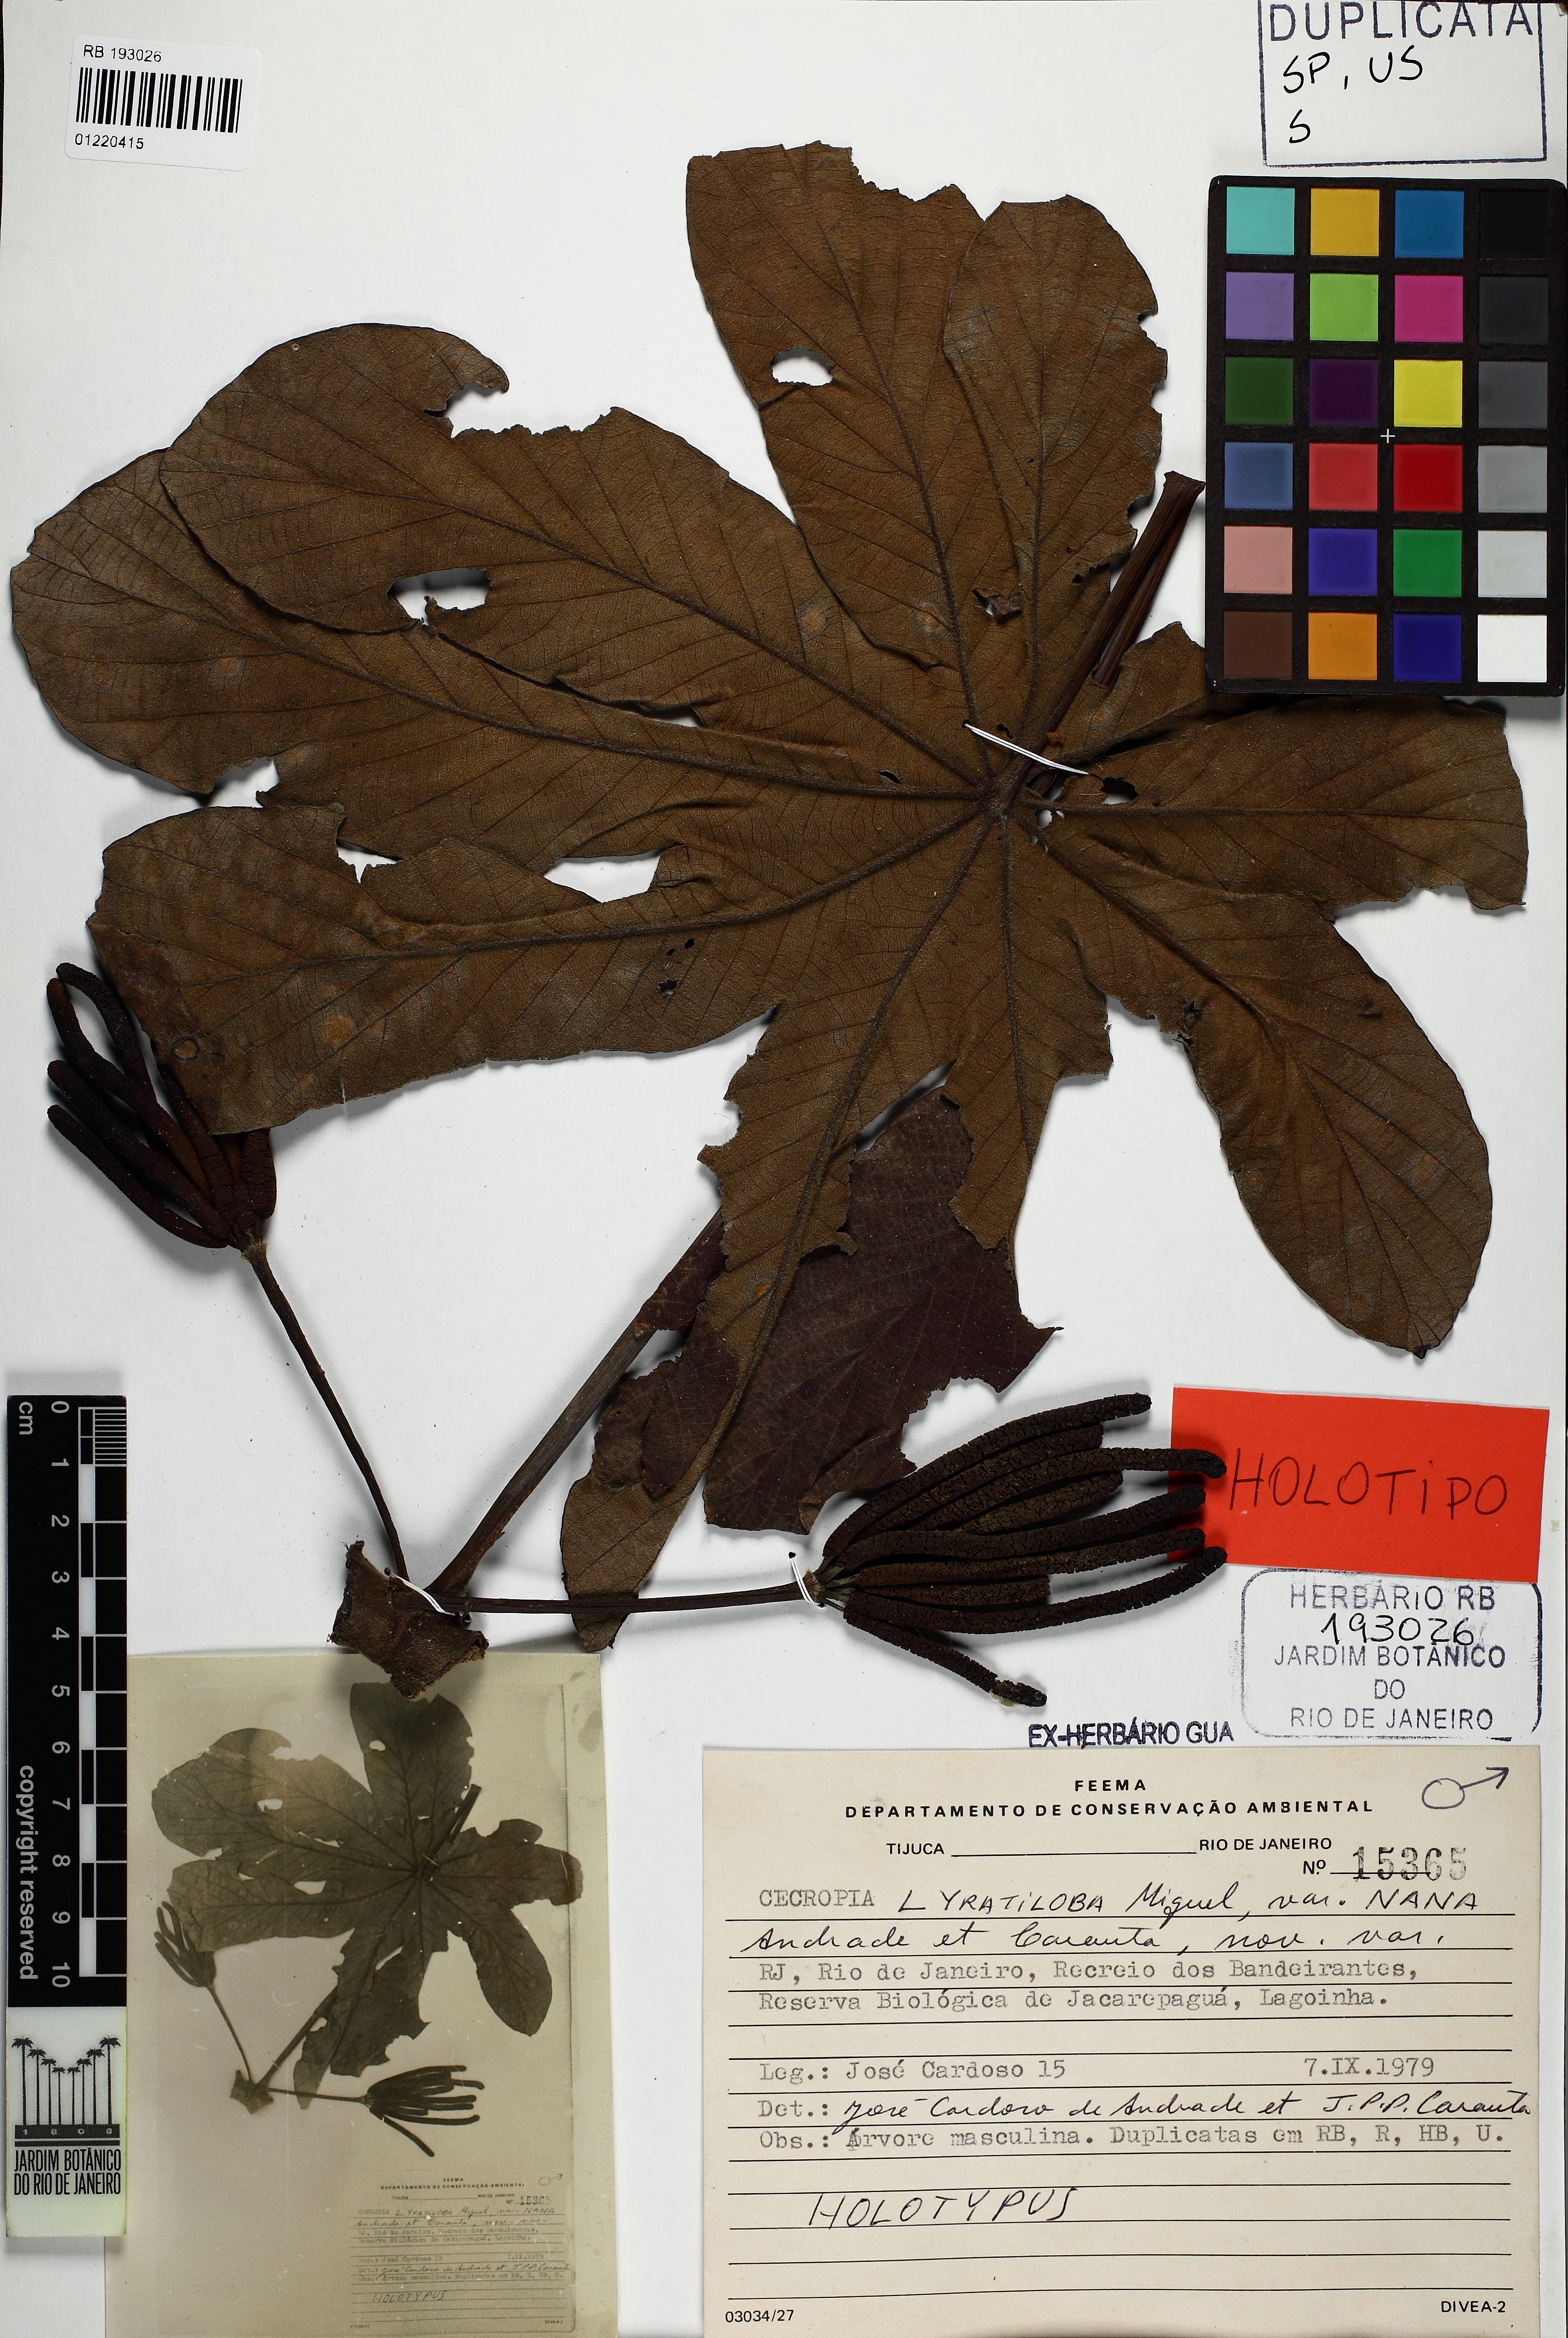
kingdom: Plantae
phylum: Tracheophyta
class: Magnoliopsida
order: Rosales
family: Urticaceae
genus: Cecropia
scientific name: Cecropia pachystachya
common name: Ambay pumpwood
